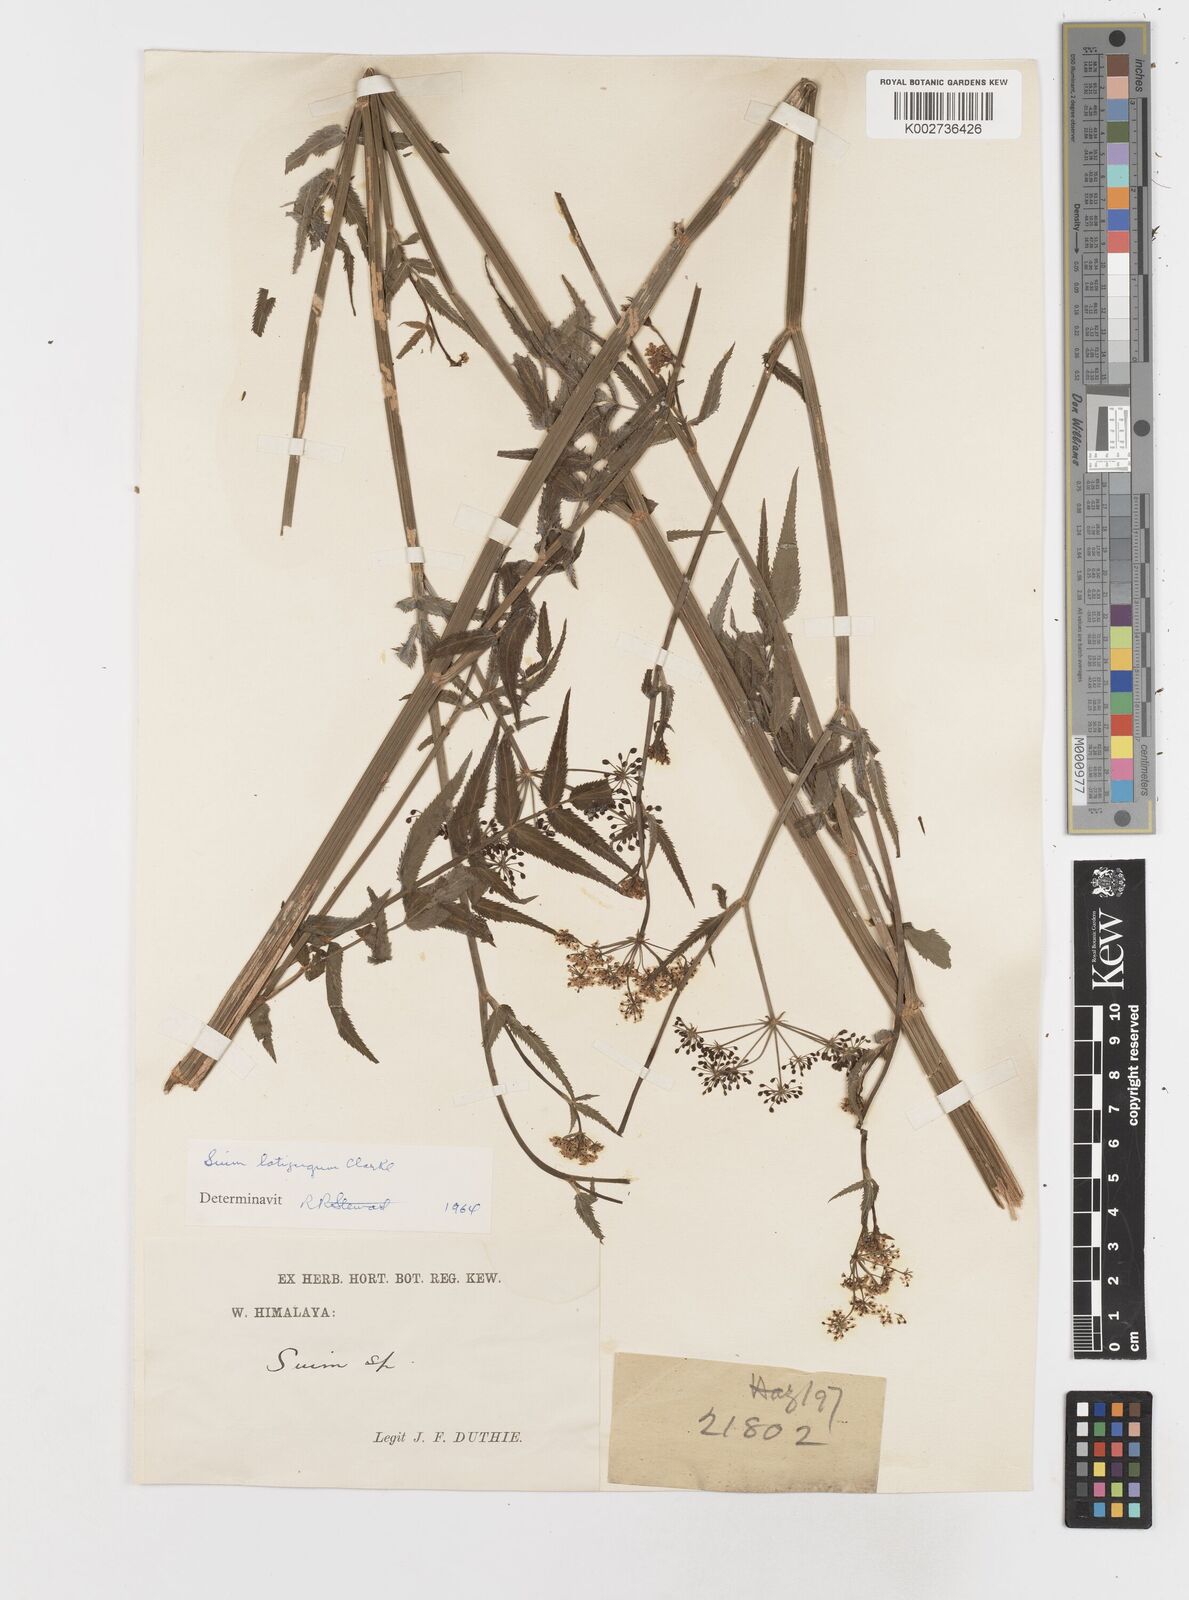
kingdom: Plantae
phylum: Tracheophyta
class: Magnoliopsida
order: Apiales
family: Apiaceae
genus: Sium
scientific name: Sium
